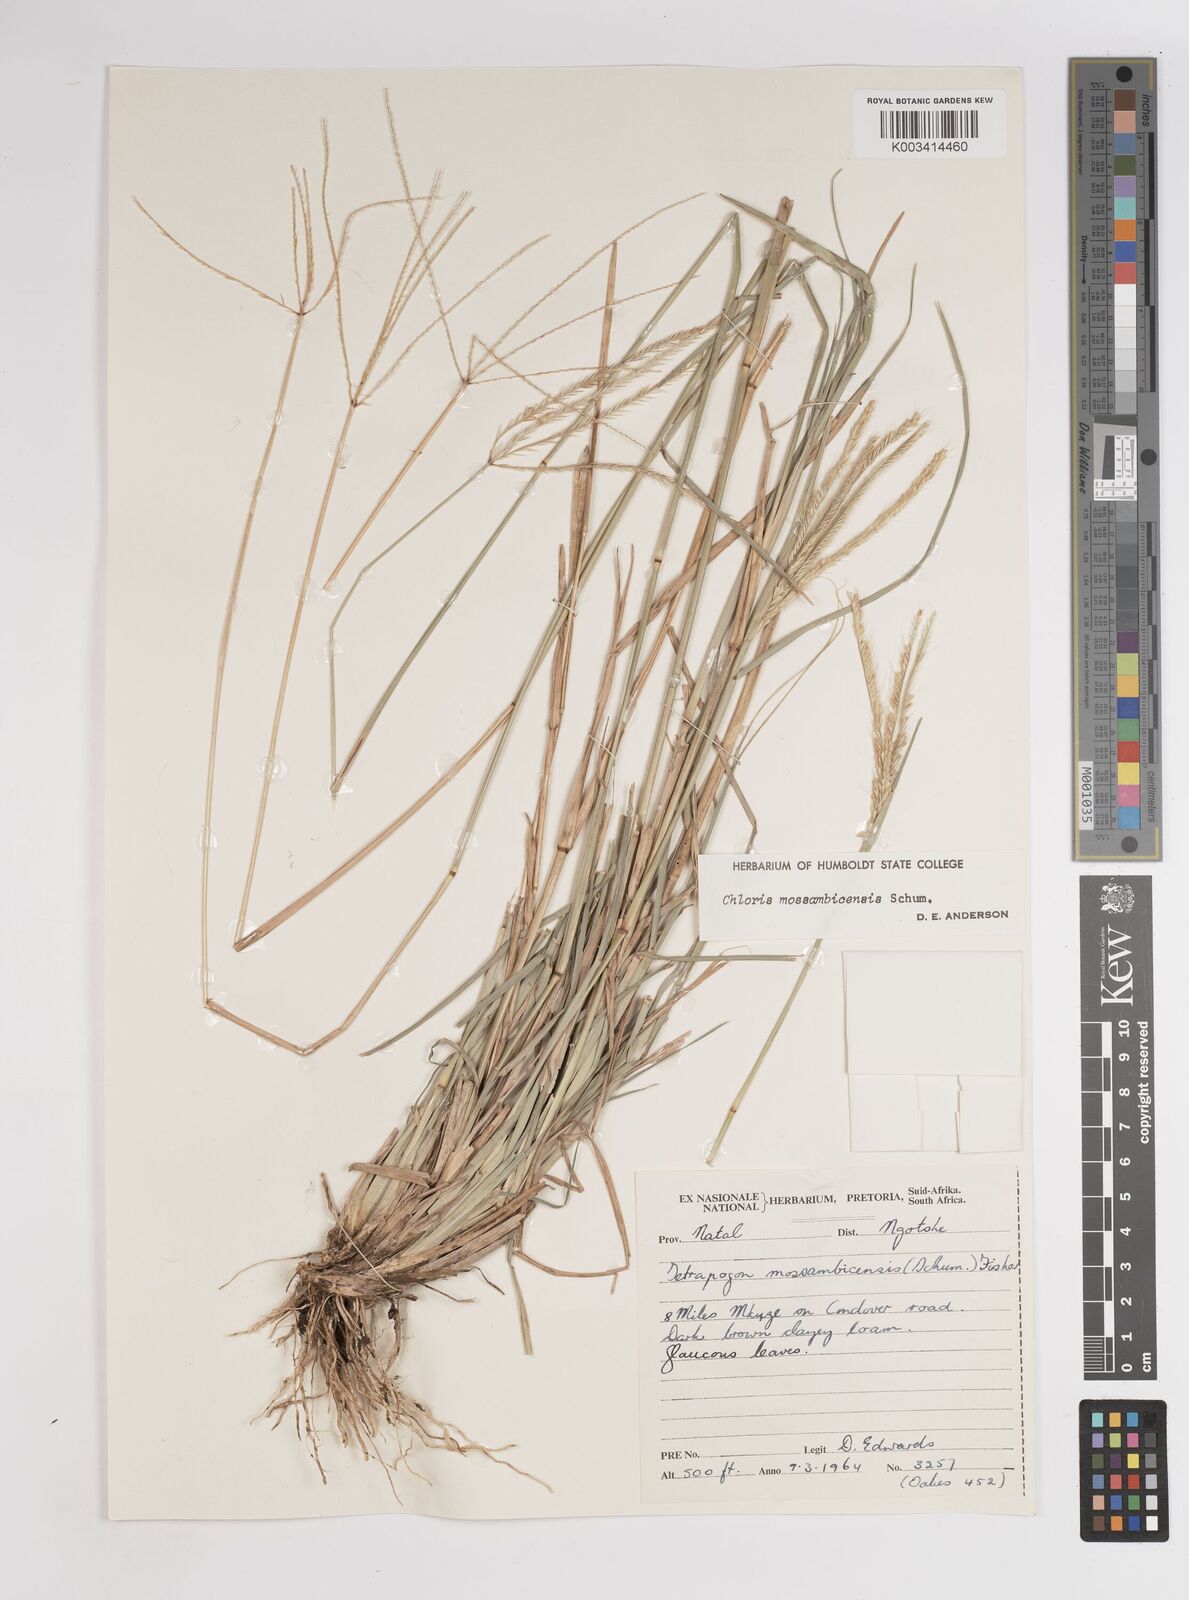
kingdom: Plantae
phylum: Tracheophyta
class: Liliopsida
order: Poales
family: Poaceae
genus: Chloris
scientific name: Chloris mossambicensis
